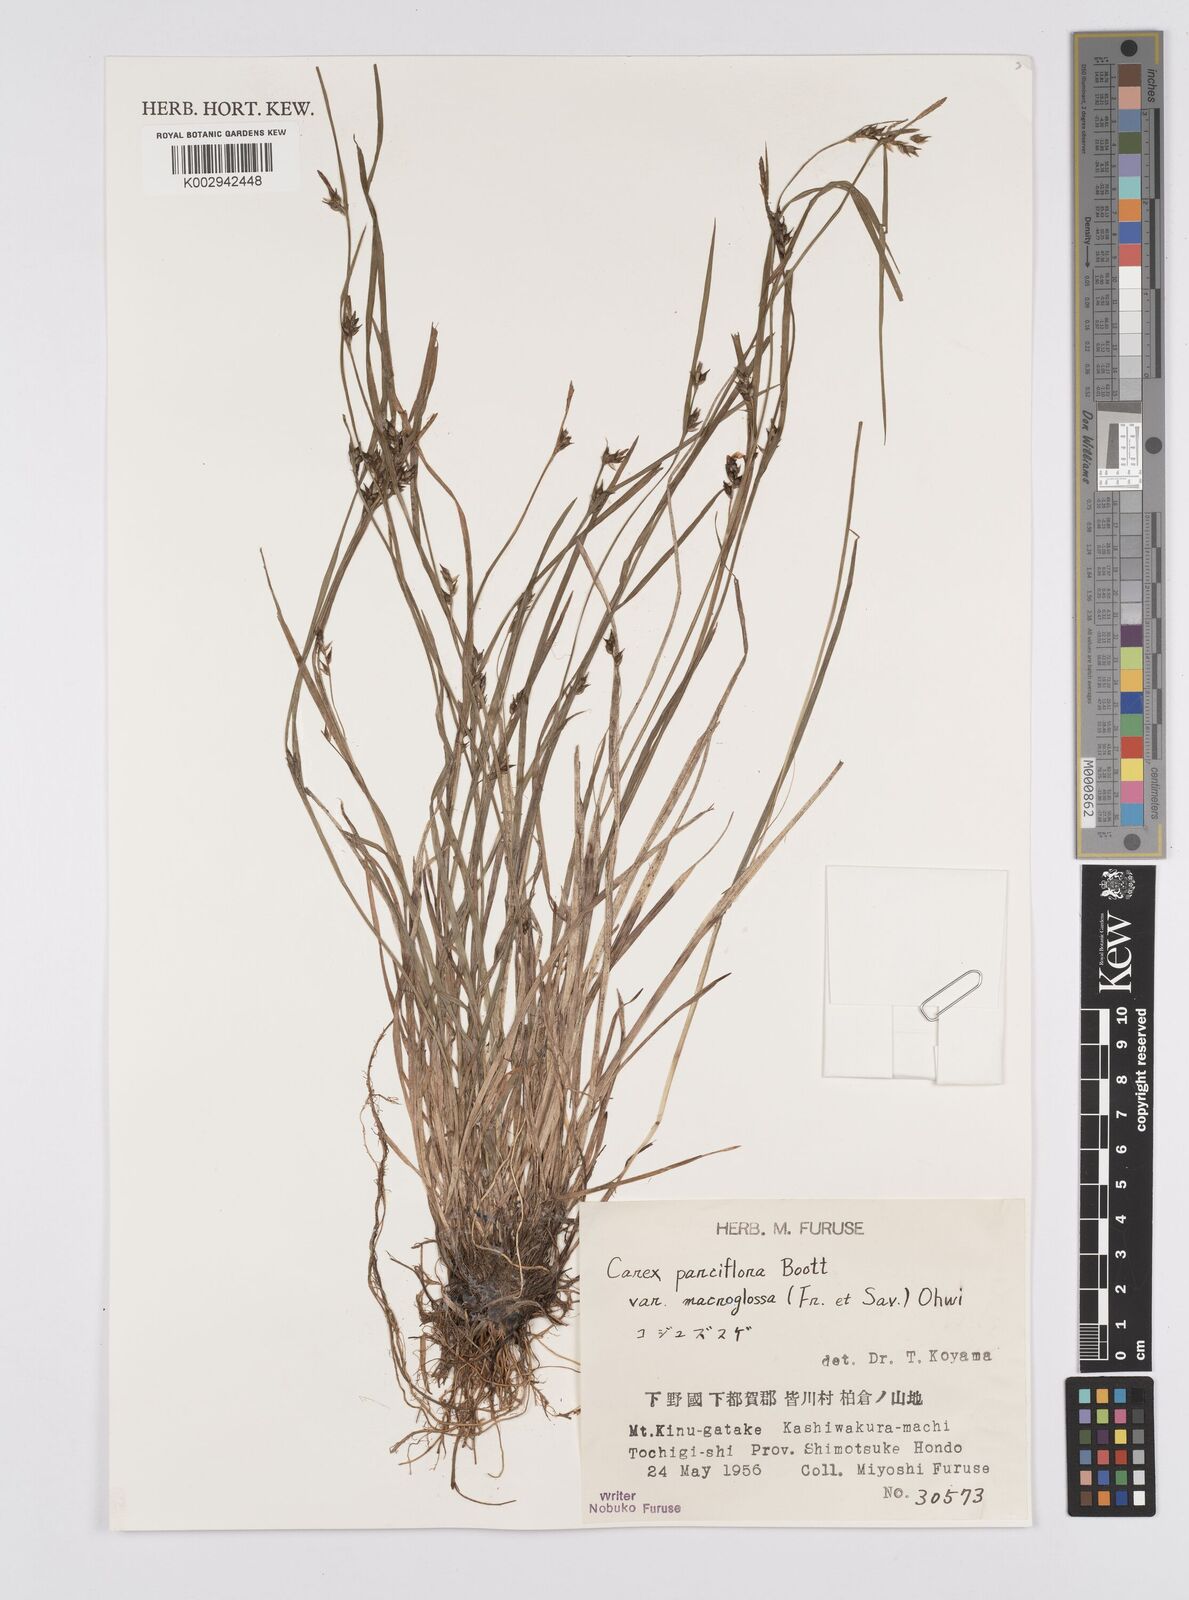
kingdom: Plantae
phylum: Tracheophyta
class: Liliopsida
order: Poales
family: Cyperaceae
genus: Carex
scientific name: Carex jackiana
